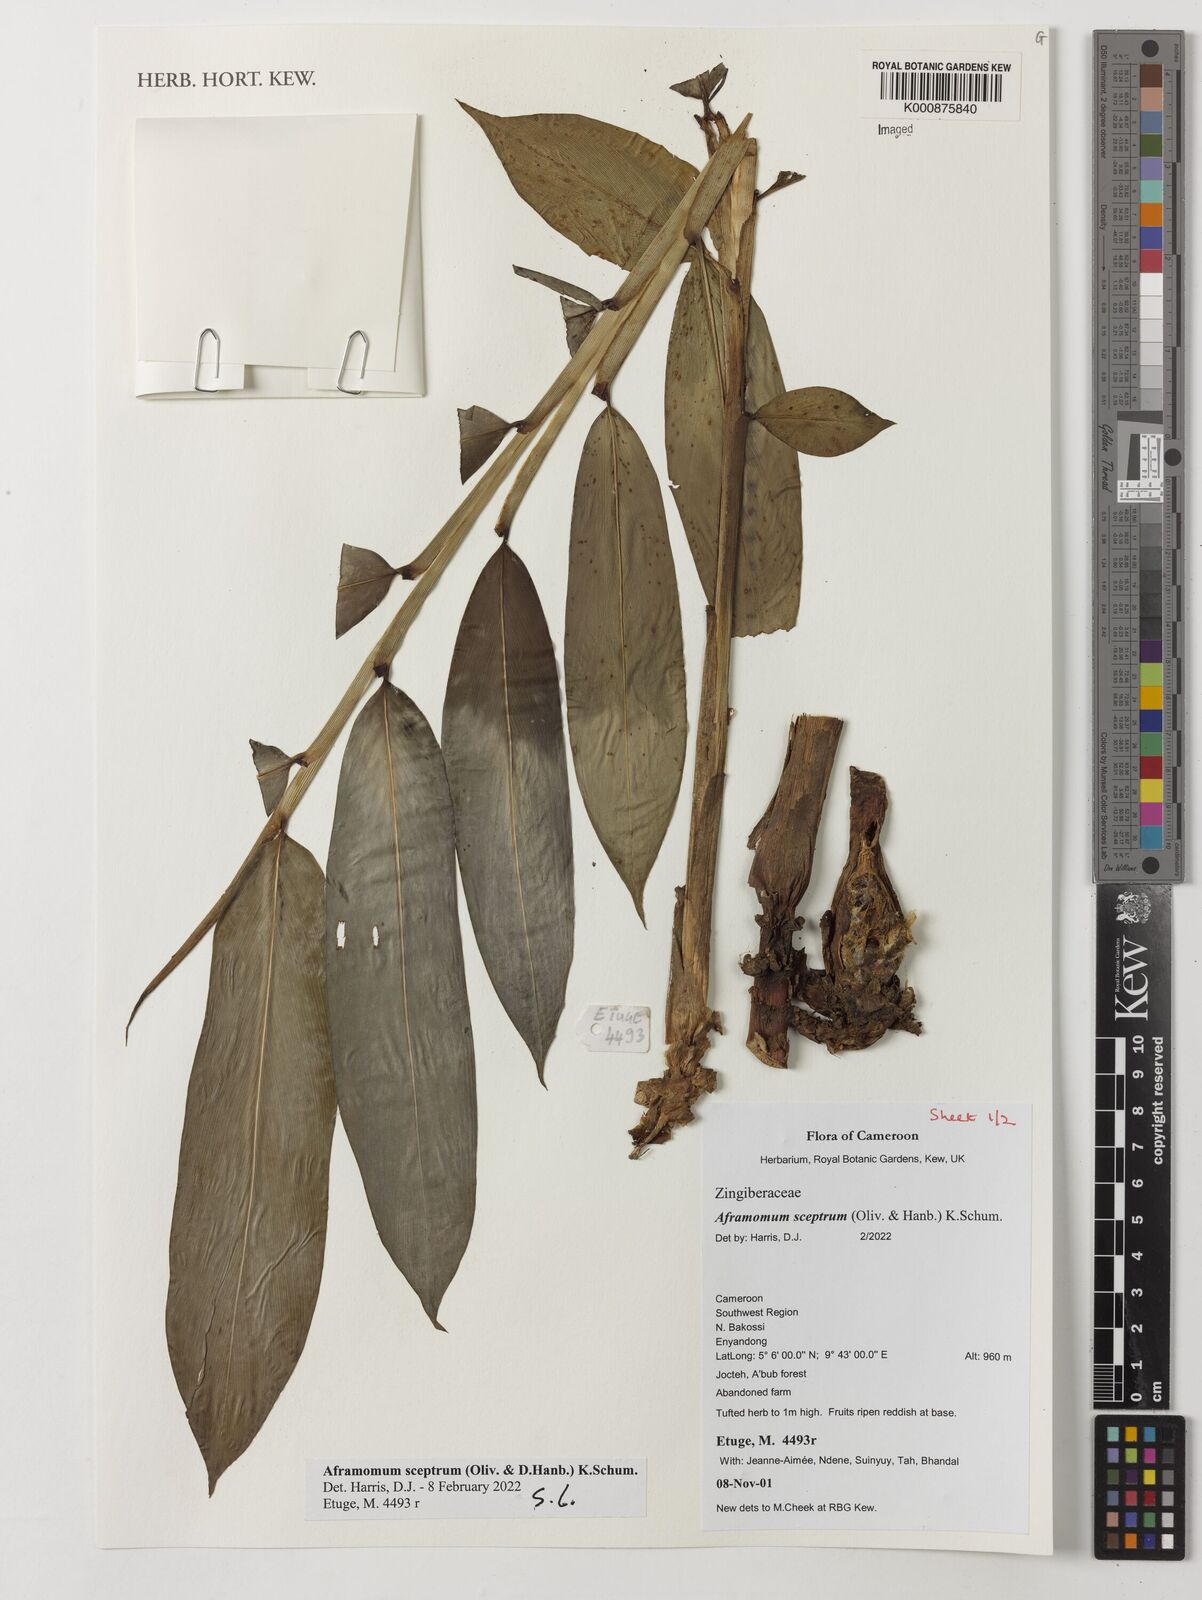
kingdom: Plantae
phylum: Tracheophyta
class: Liliopsida
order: Zingiberales
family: Zingiberaceae
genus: Aframomum
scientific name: Aframomum cereum
